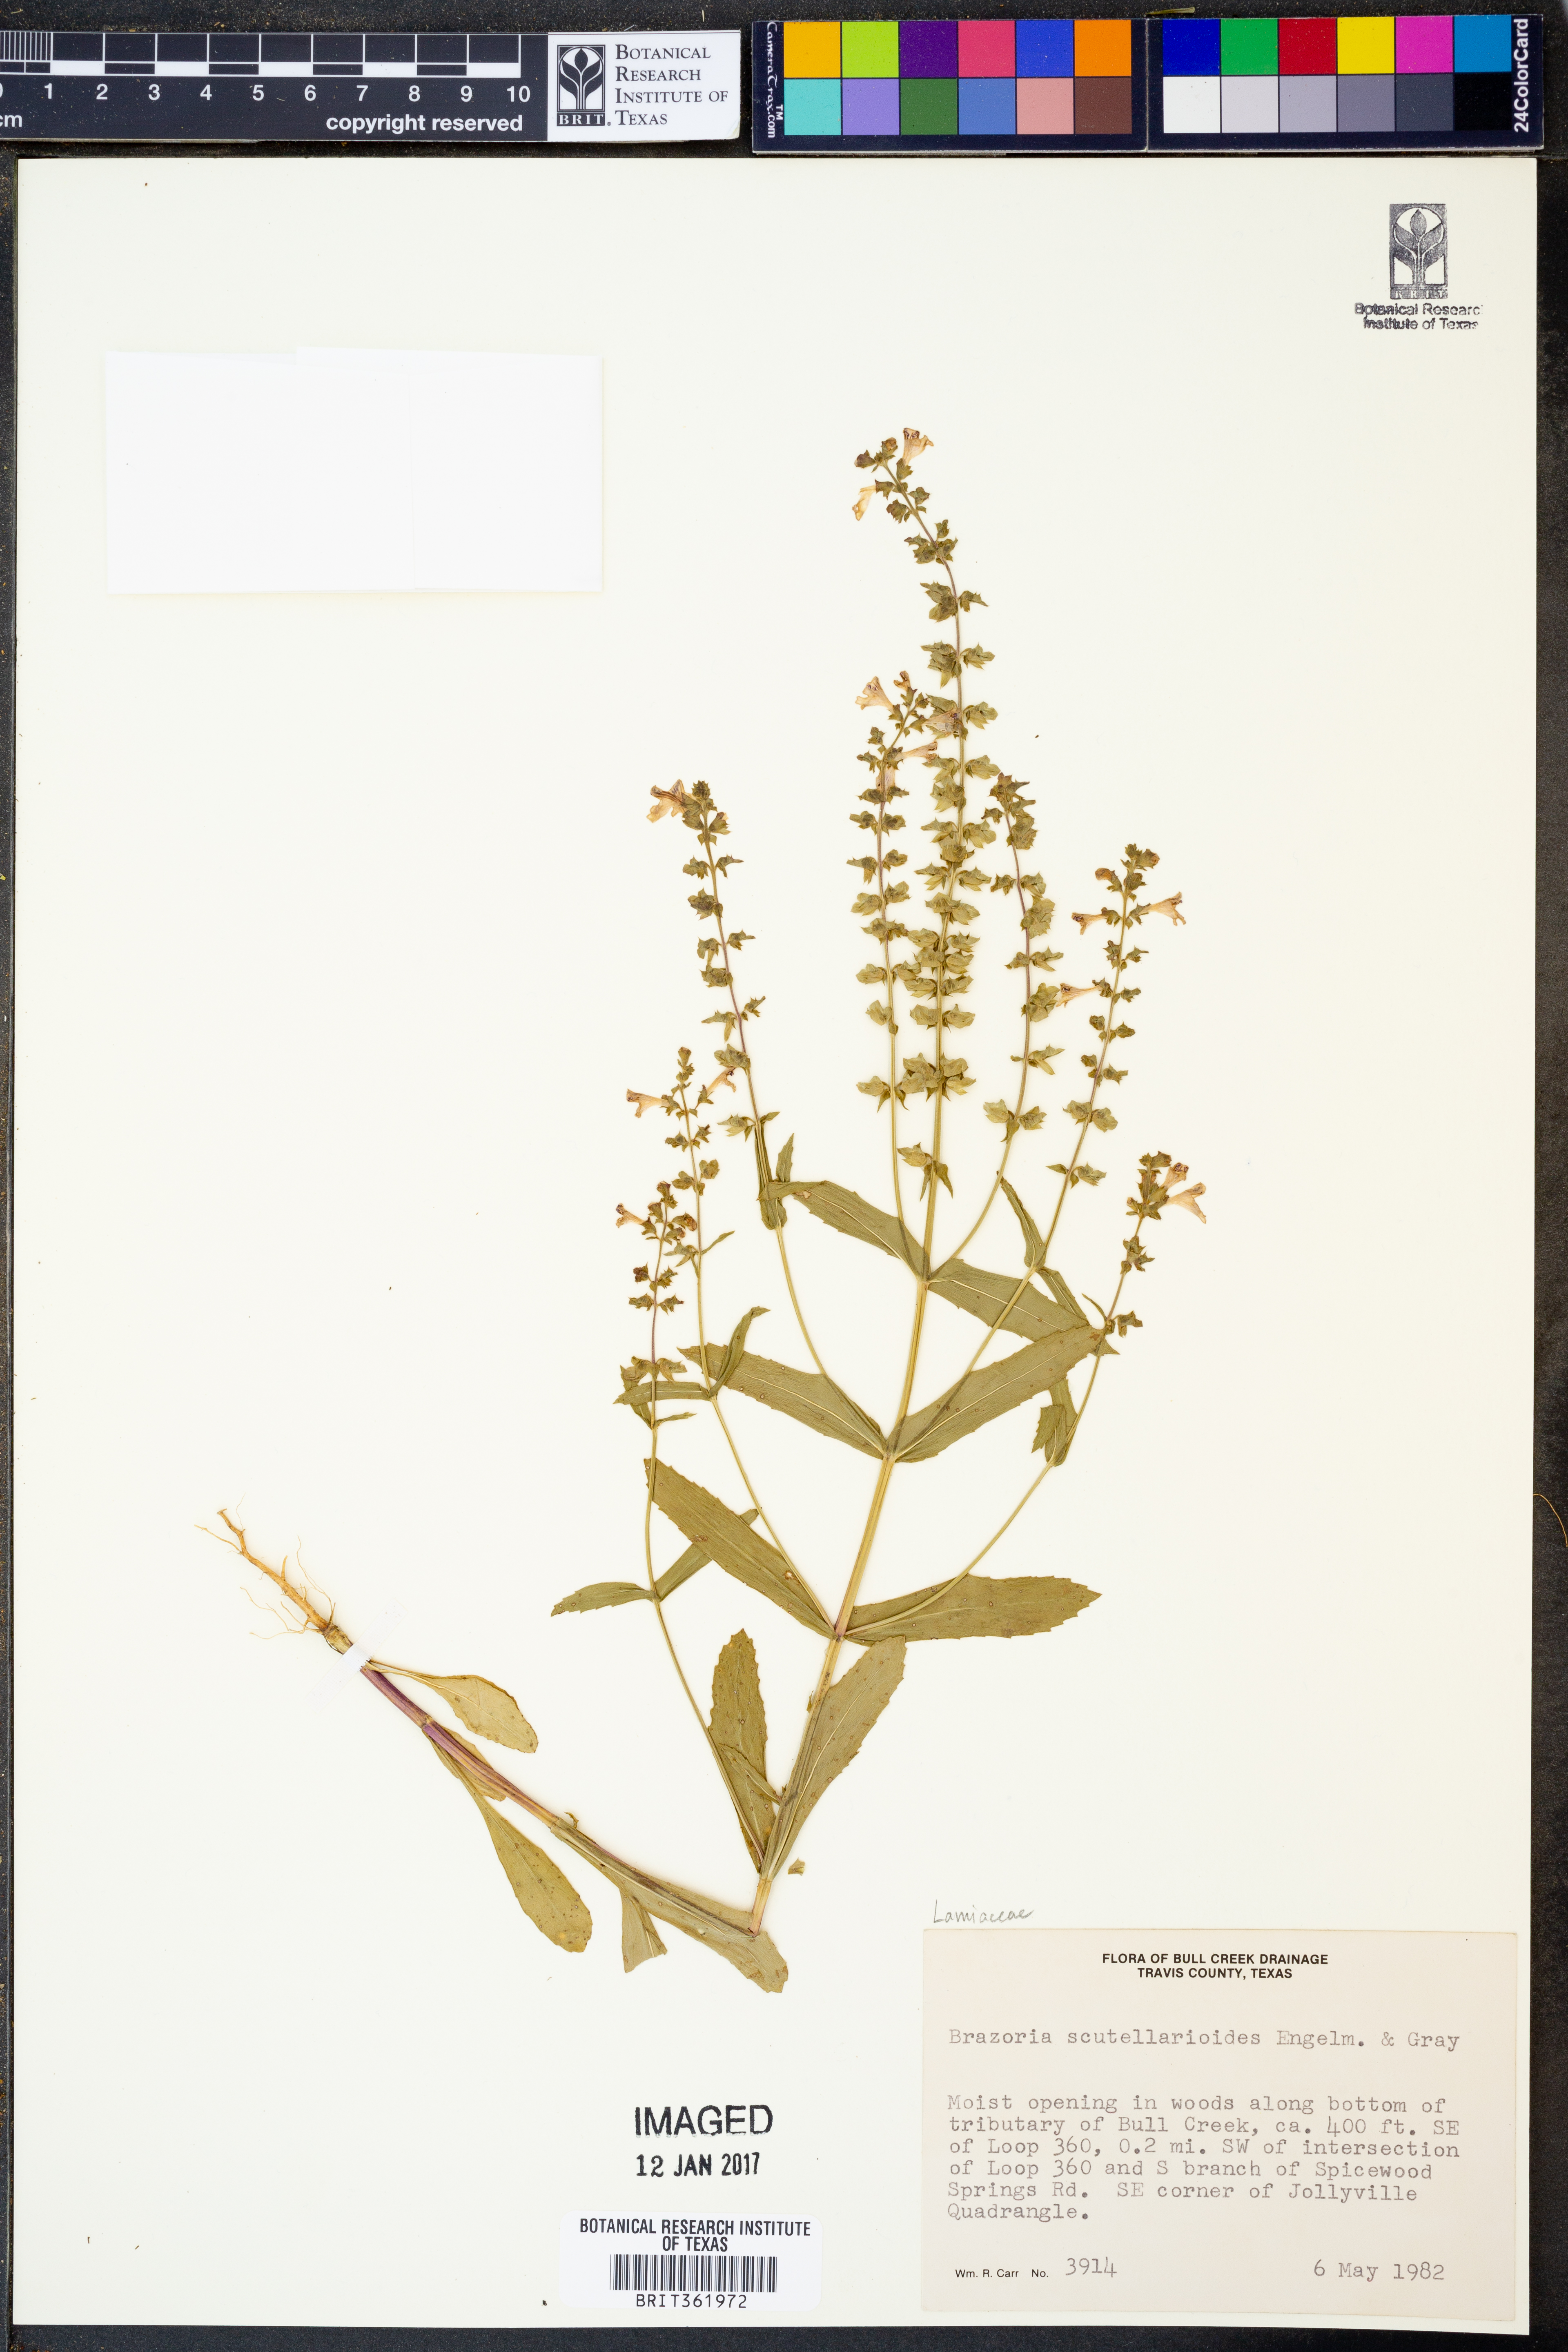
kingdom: Plantae
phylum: Tracheophyta
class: Magnoliopsida
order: Lamiales
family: Lamiaceae
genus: Warnockia
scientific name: Warnockia scutellarioides
